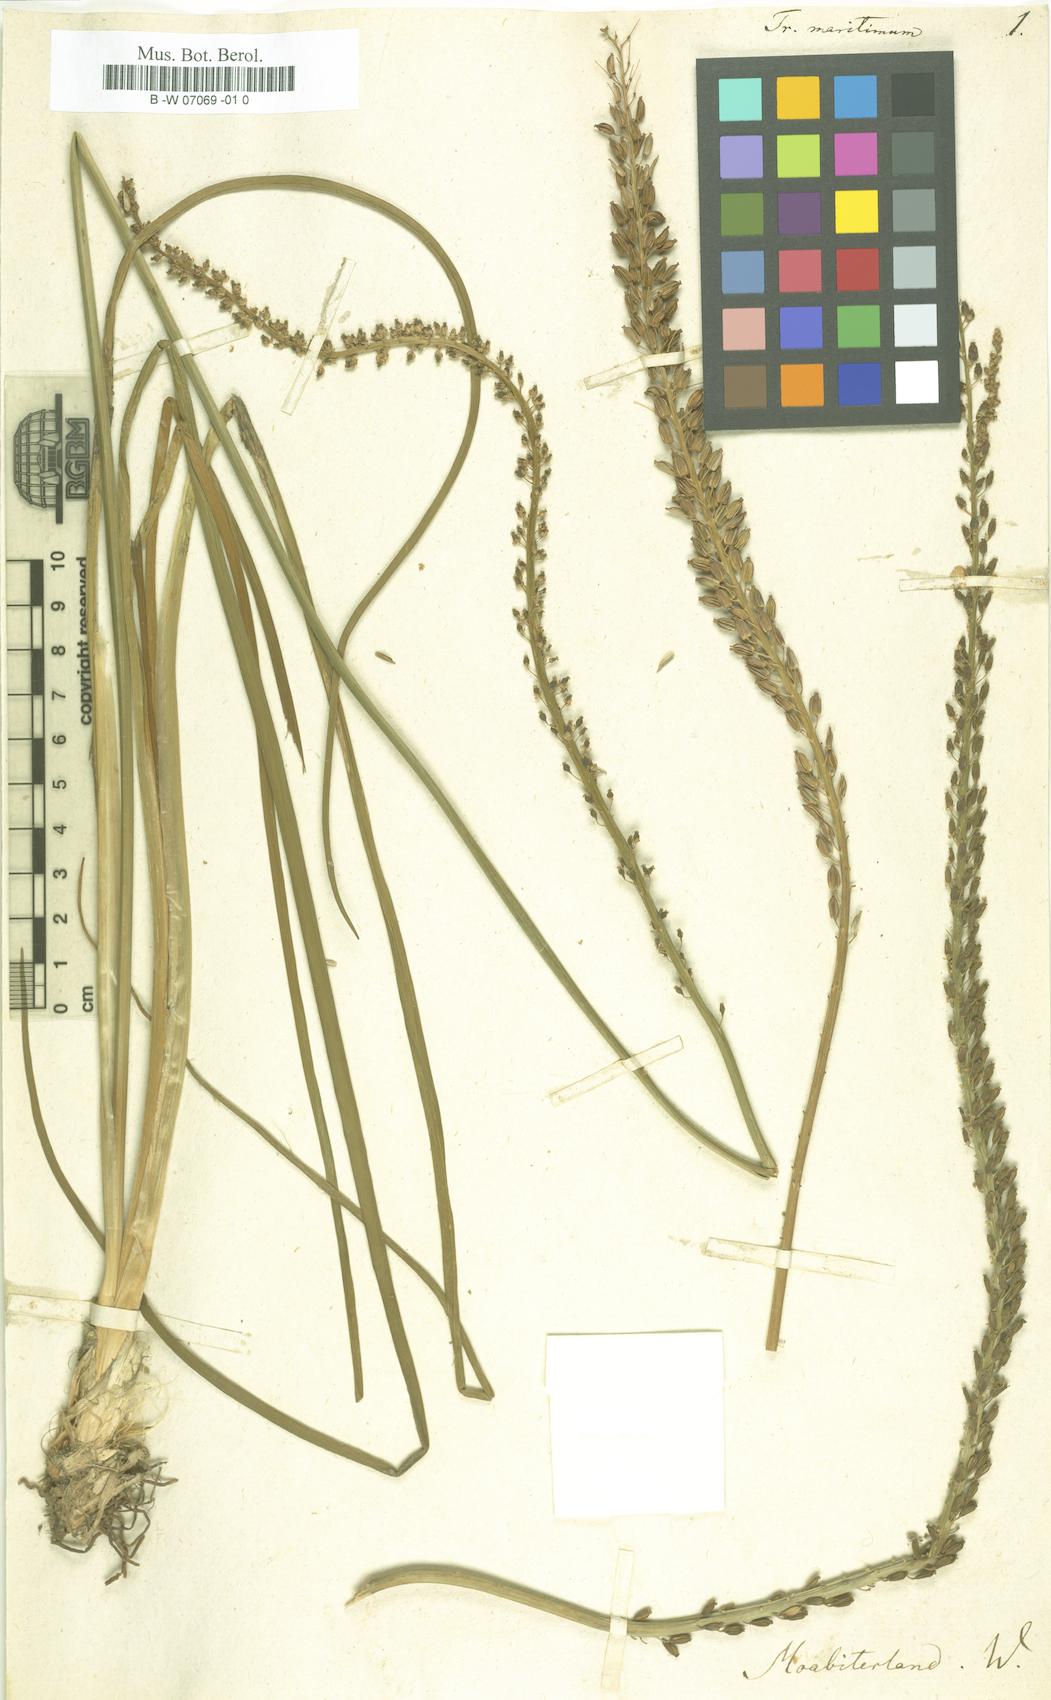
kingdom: Plantae
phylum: Tracheophyta
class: Liliopsida
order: Alismatales
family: Juncaginaceae
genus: Triglochin
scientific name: Triglochin maritima
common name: Sea arrowgrass
